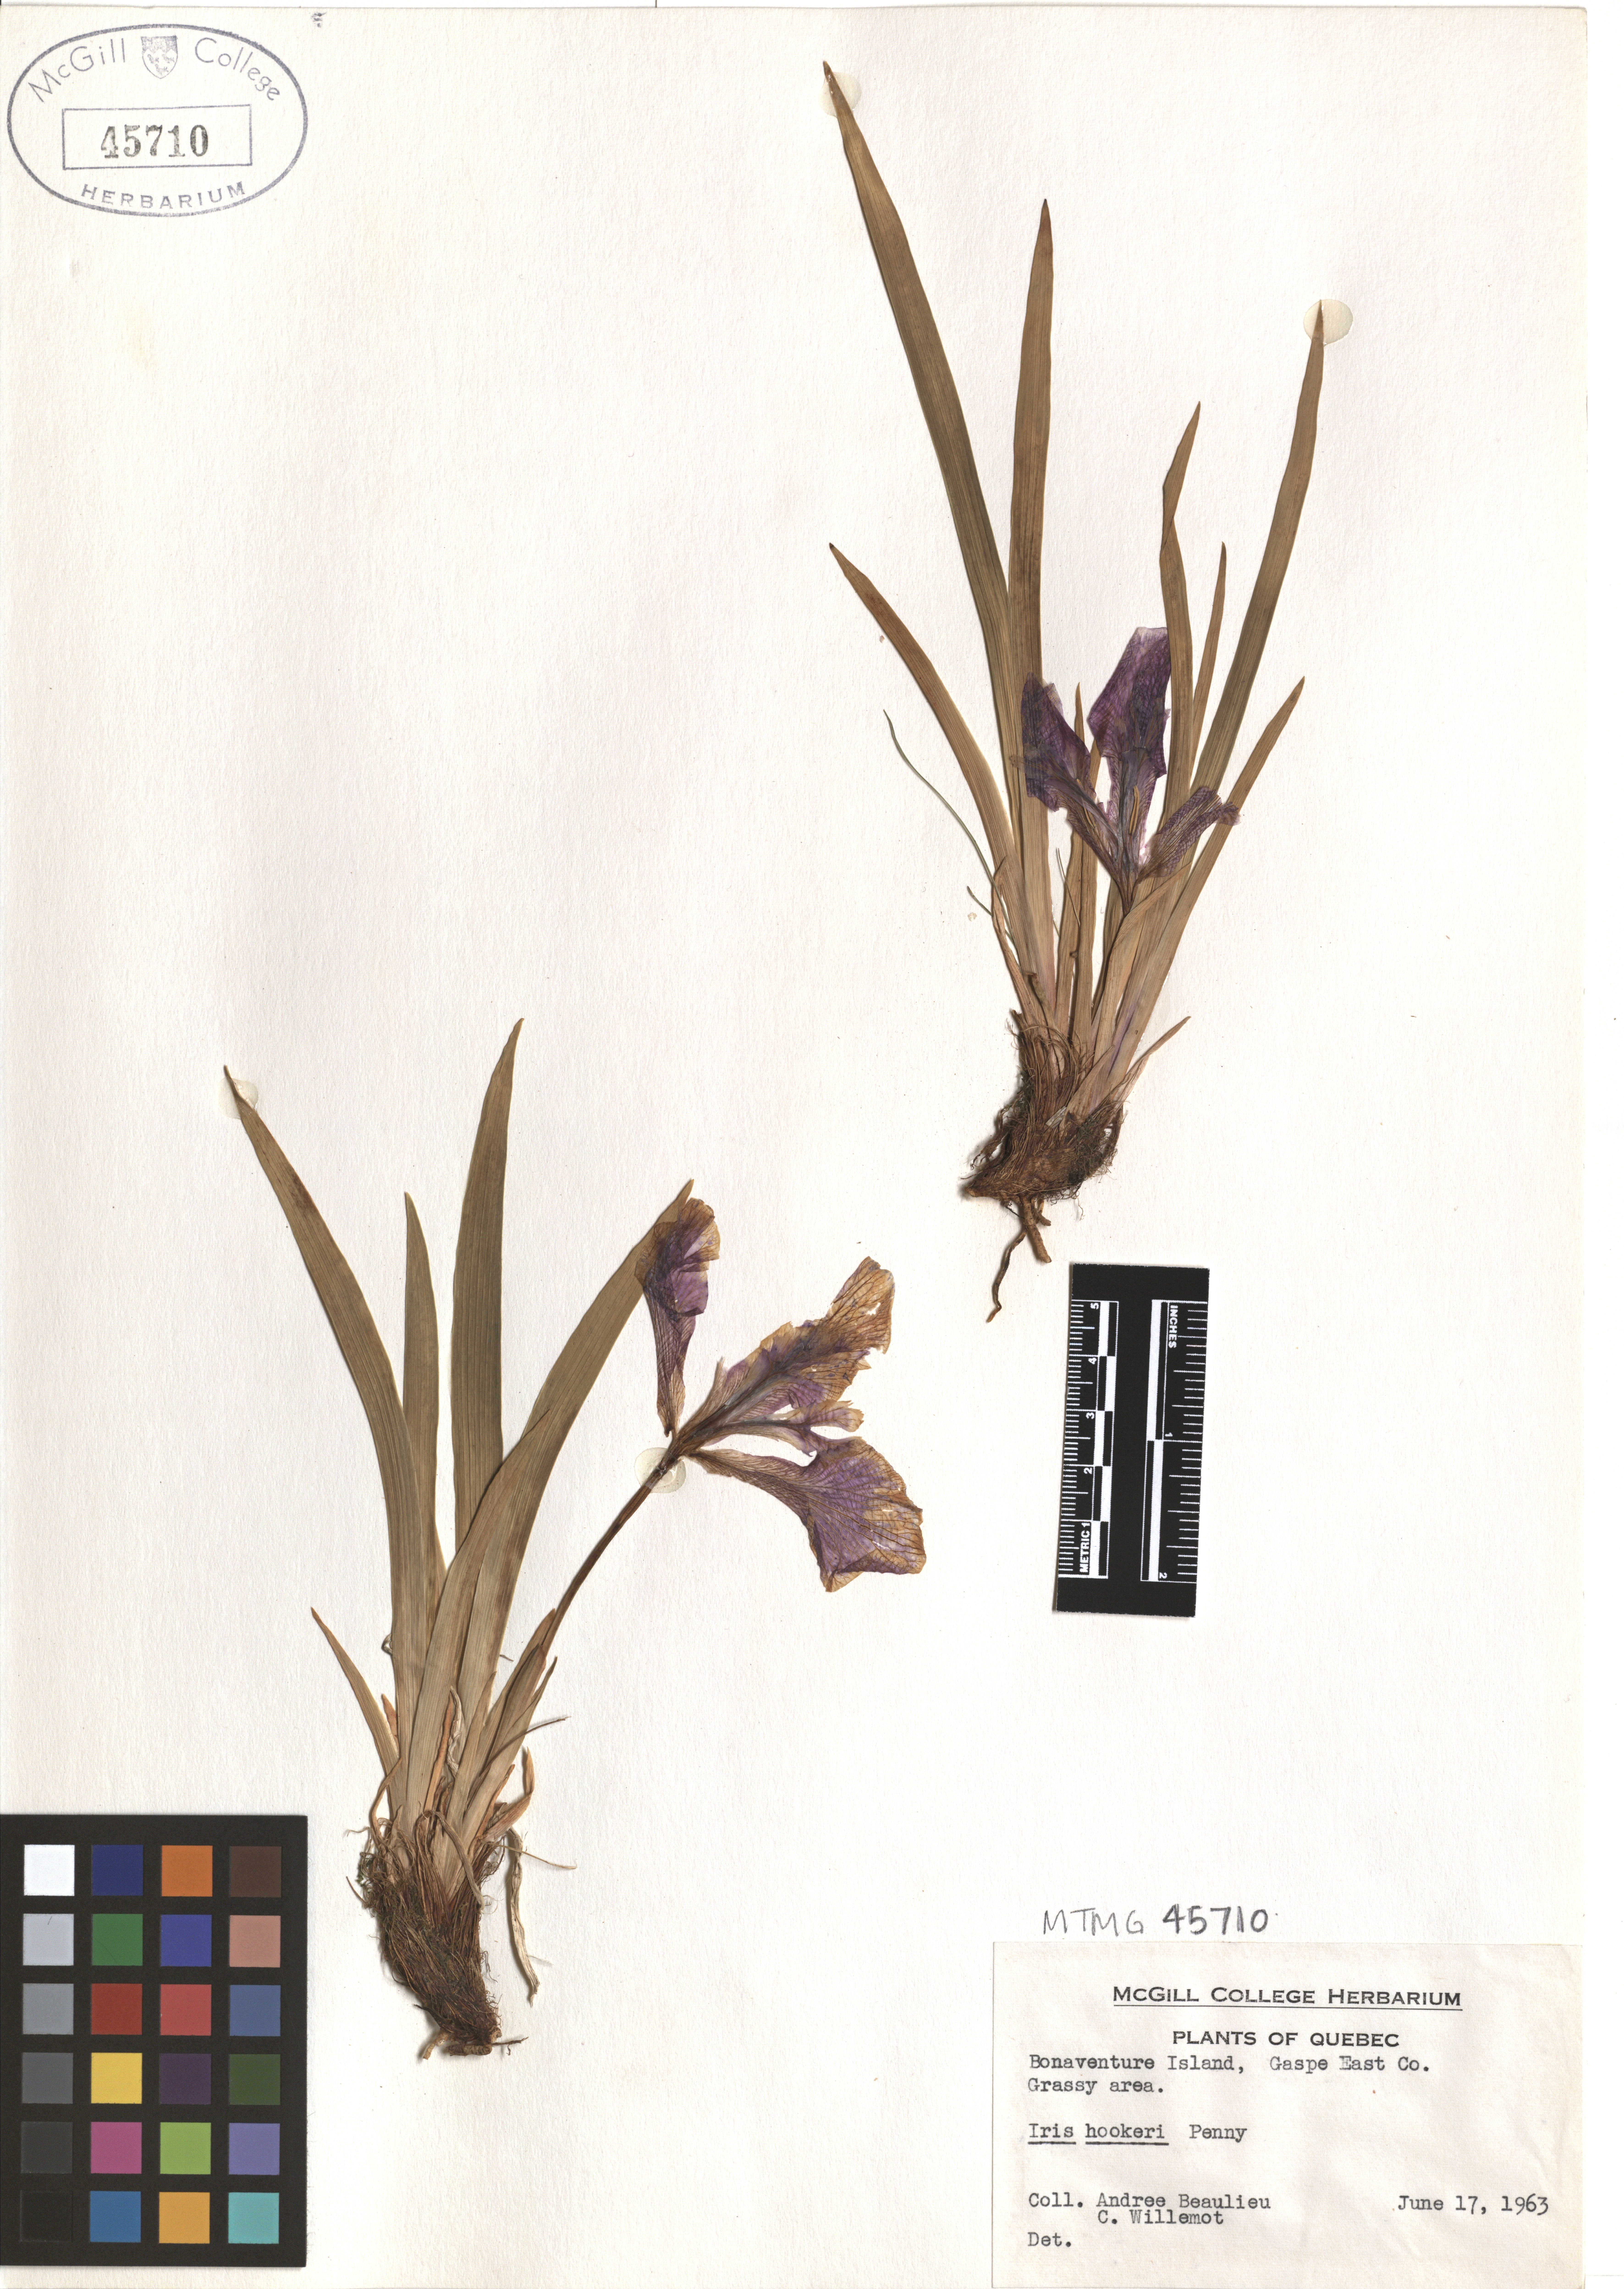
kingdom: Plantae
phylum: Tracheophyta
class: Liliopsida
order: Asparagales
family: Iridaceae
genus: Iris
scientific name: Iris hookeri
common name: Canada beach-head iris
